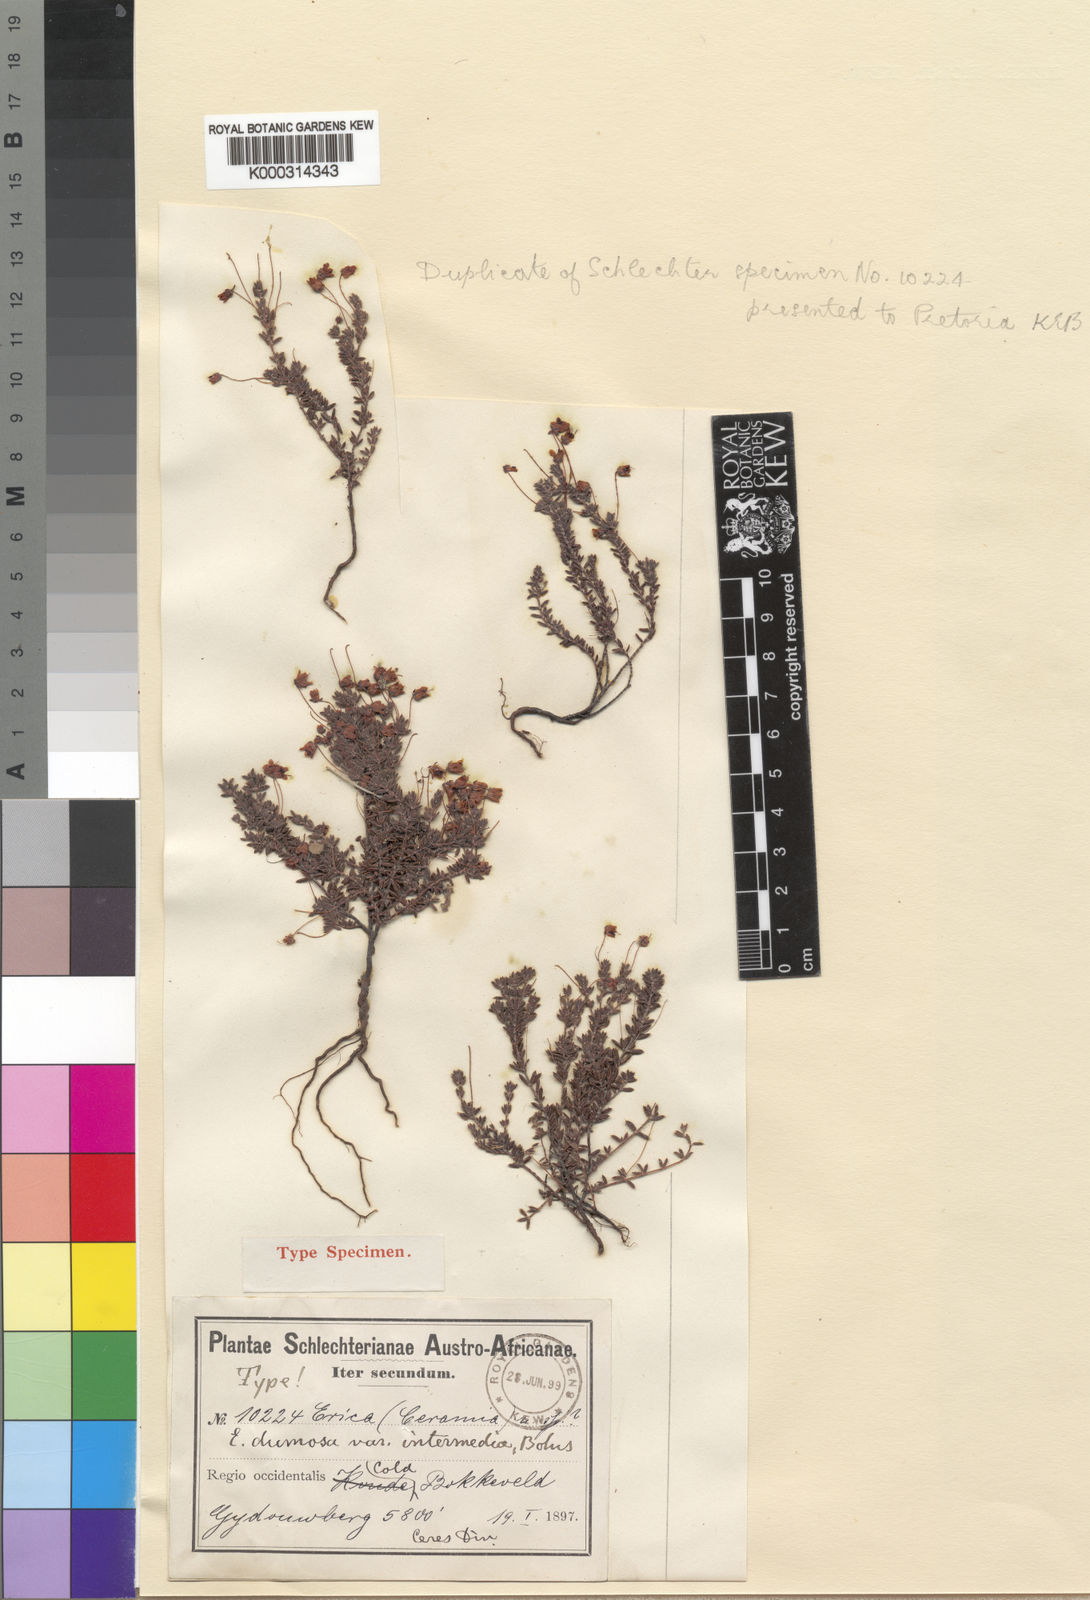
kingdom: Plantae
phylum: Tracheophyta
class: Magnoliopsida
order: Ericales
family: Ericaceae
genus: Erica
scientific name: Erica
